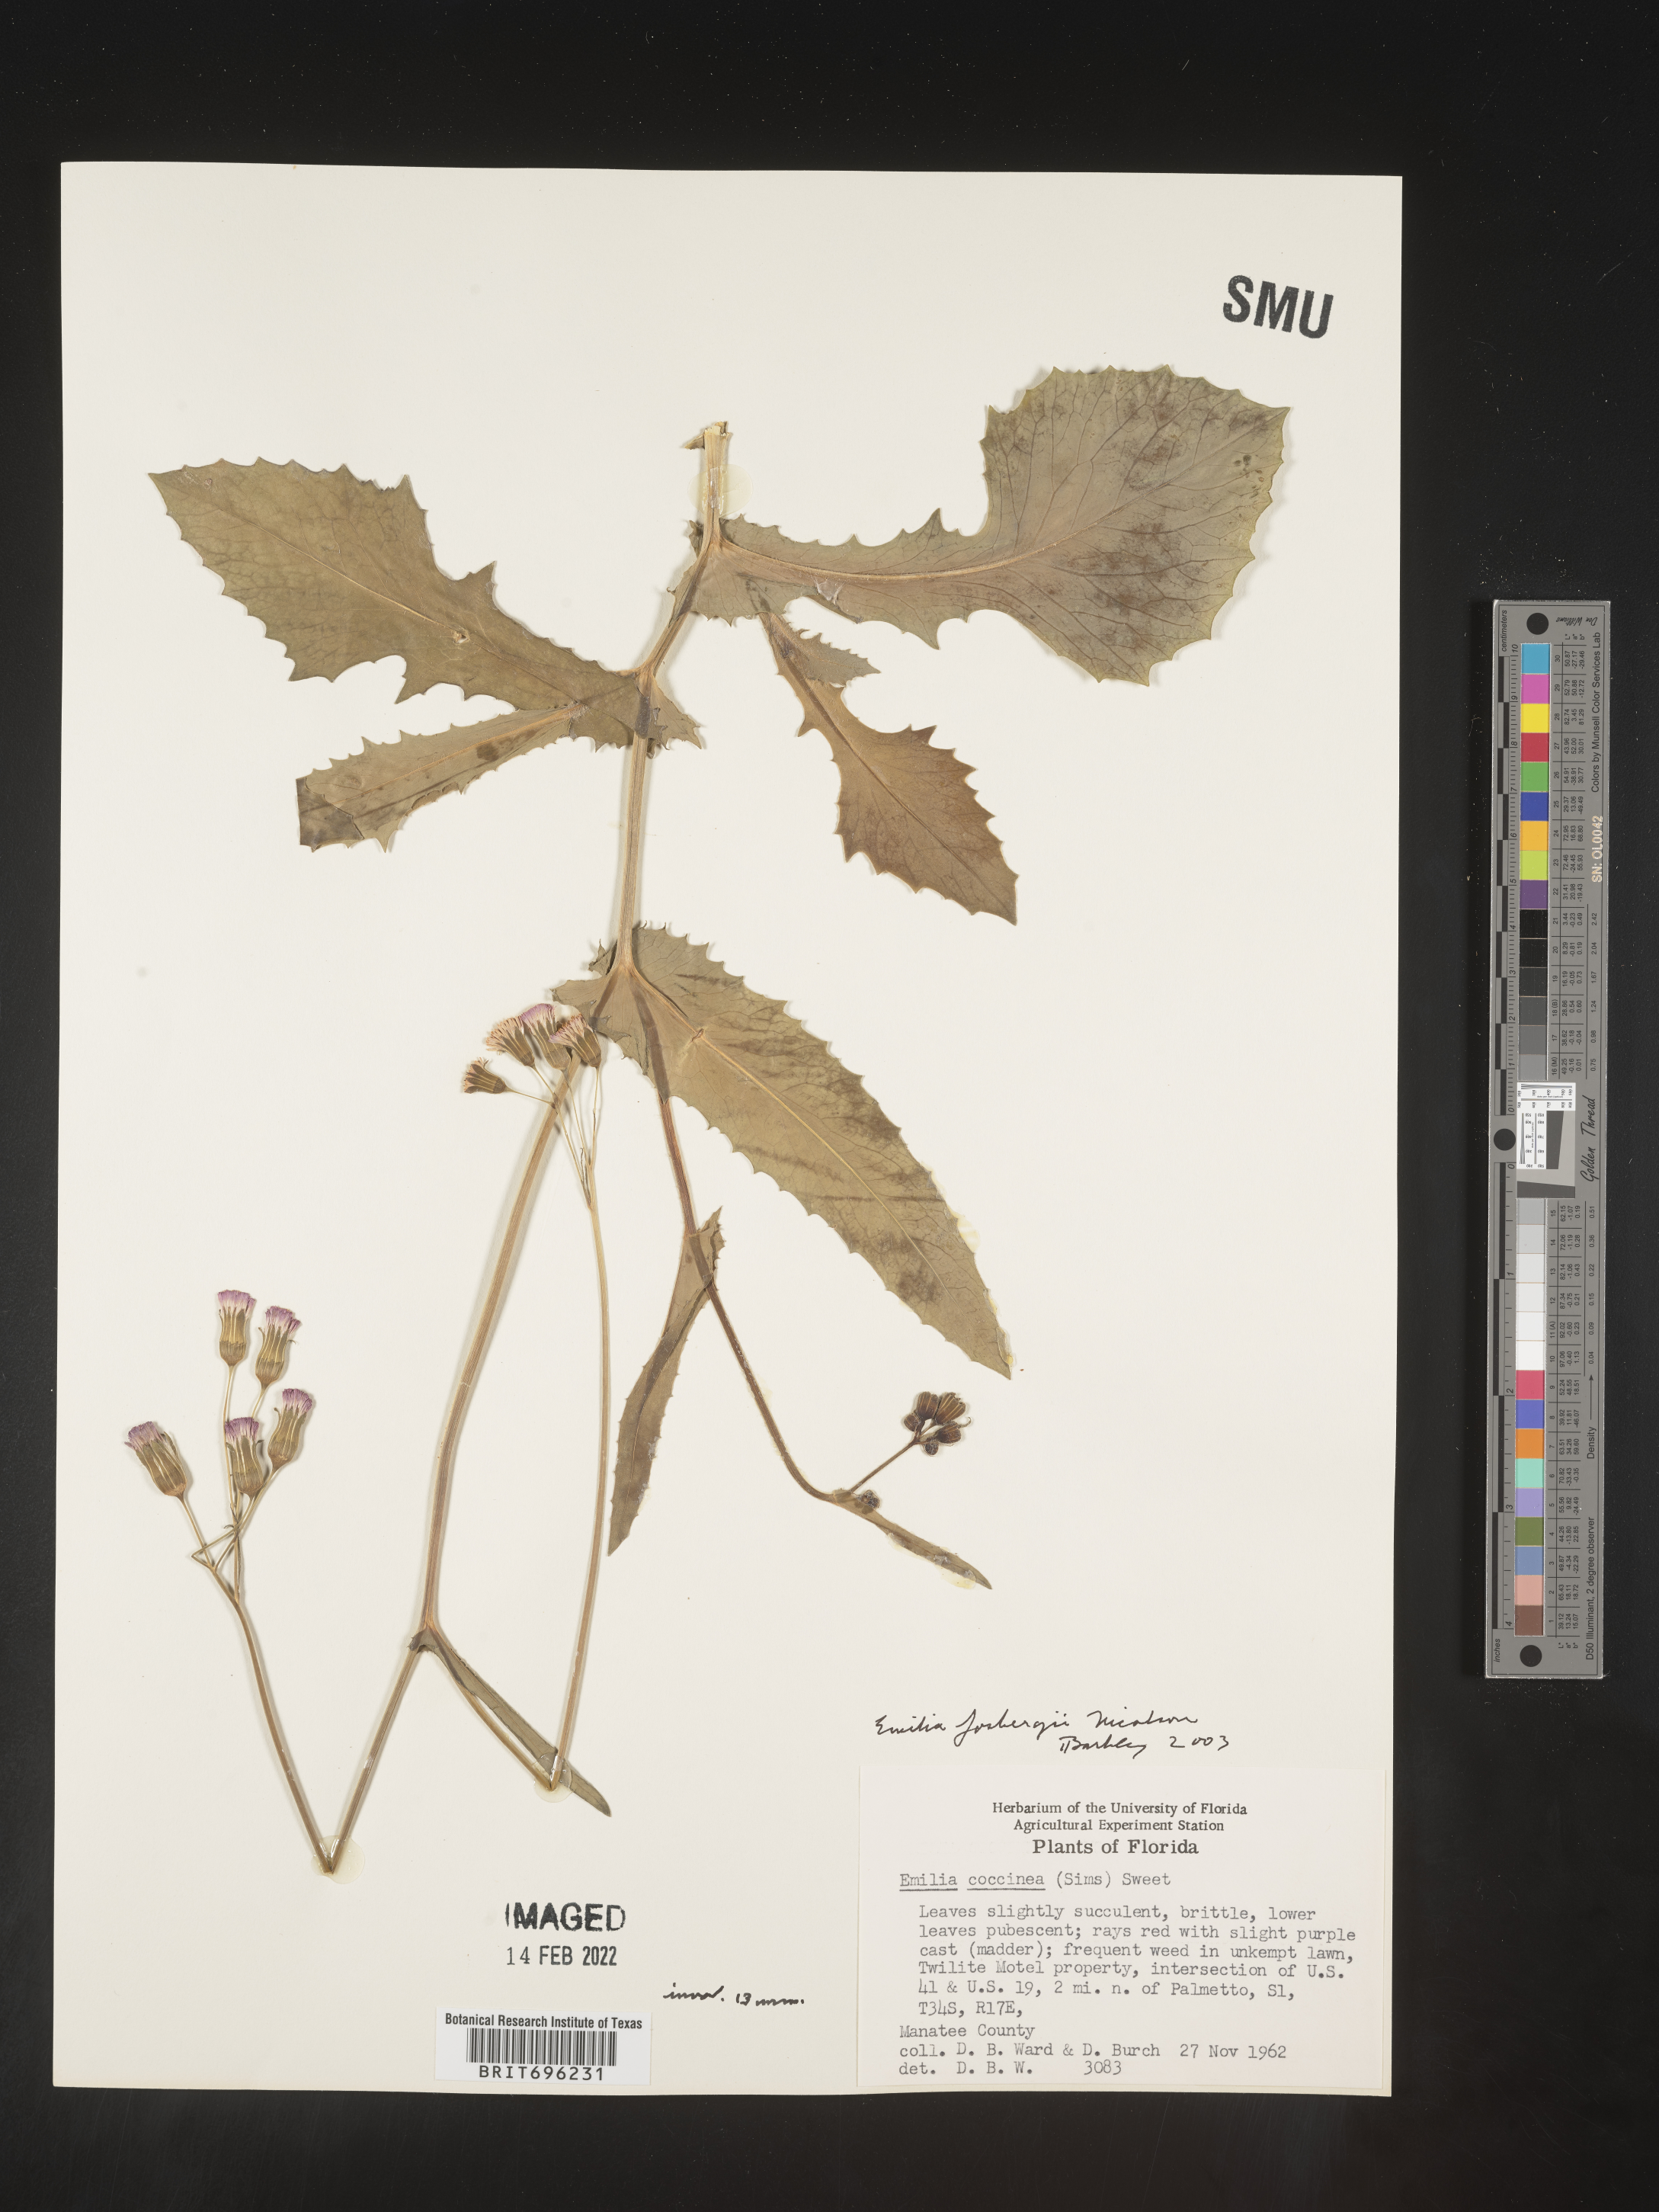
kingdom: Plantae
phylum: Tracheophyta
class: Magnoliopsida
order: Asterales
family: Asteraceae
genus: Emilia
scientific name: Emilia fosbergii
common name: Florida tasselflower
